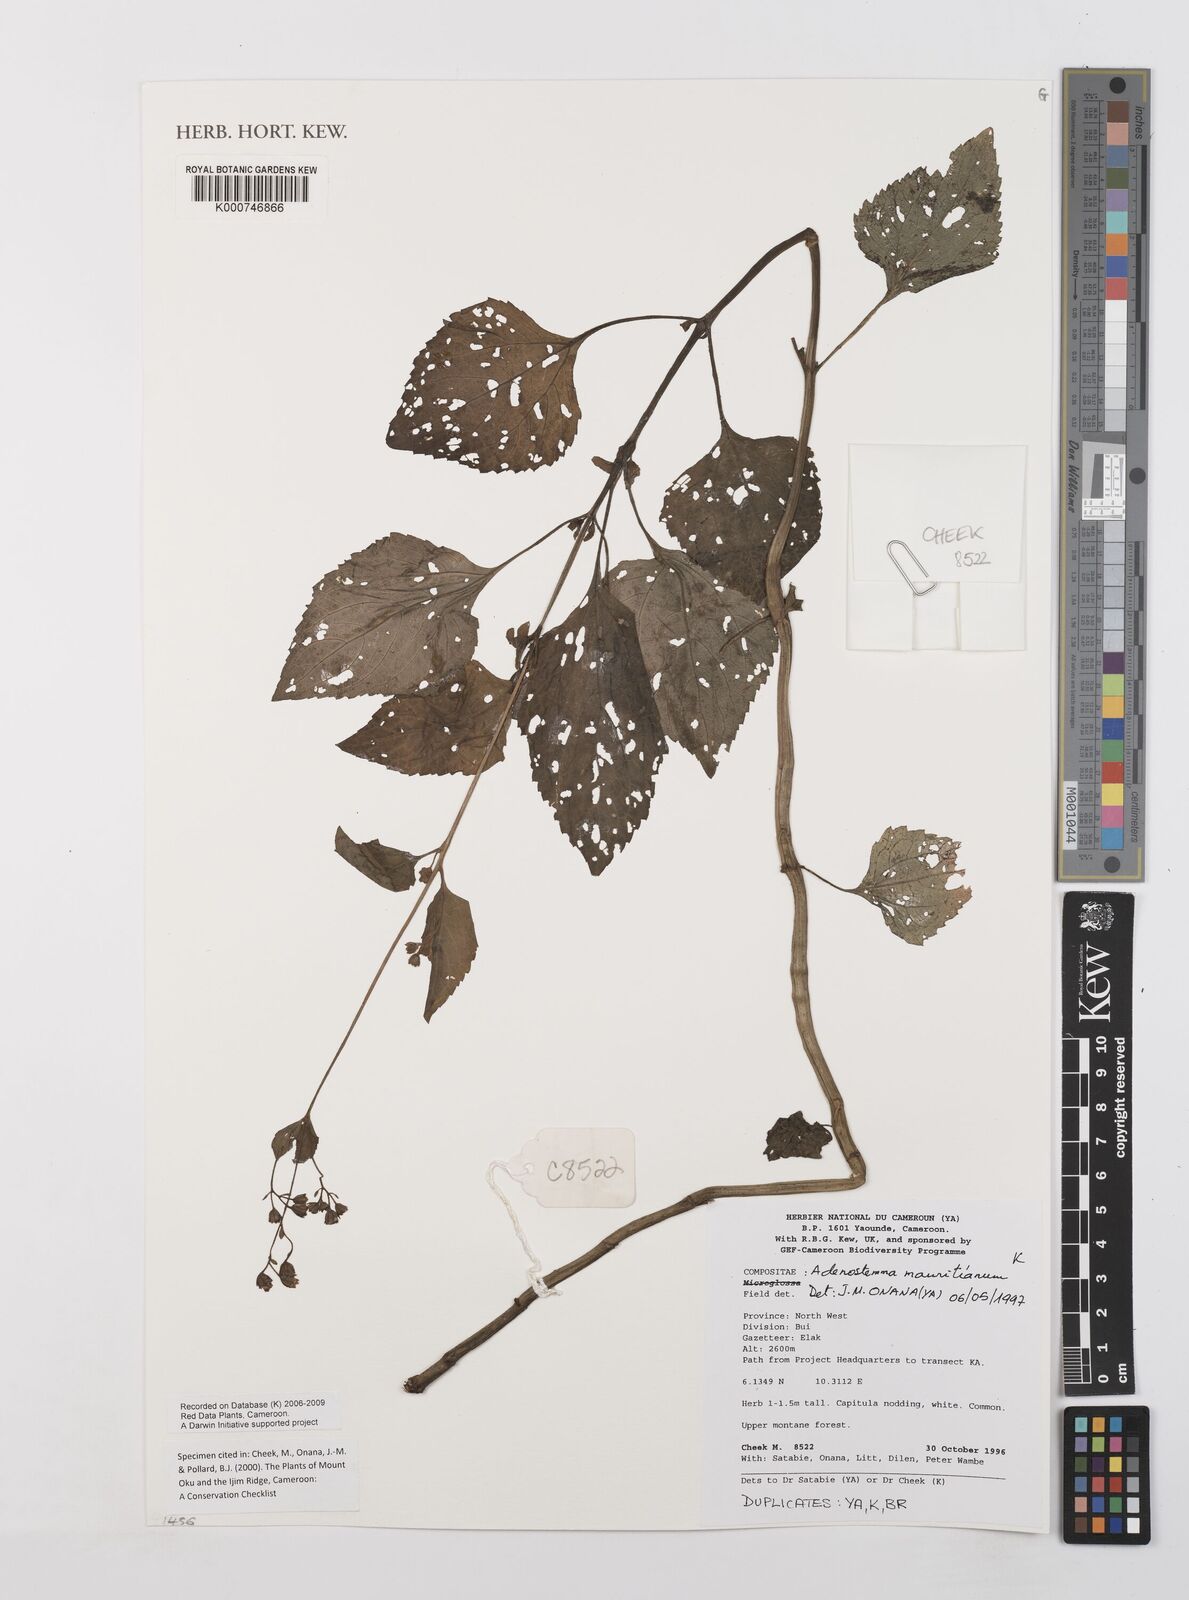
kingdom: Plantae
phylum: Tracheophyta
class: Magnoliopsida
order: Asterales
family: Asteraceae
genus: Adenostemma
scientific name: Adenostemma mauritianum
